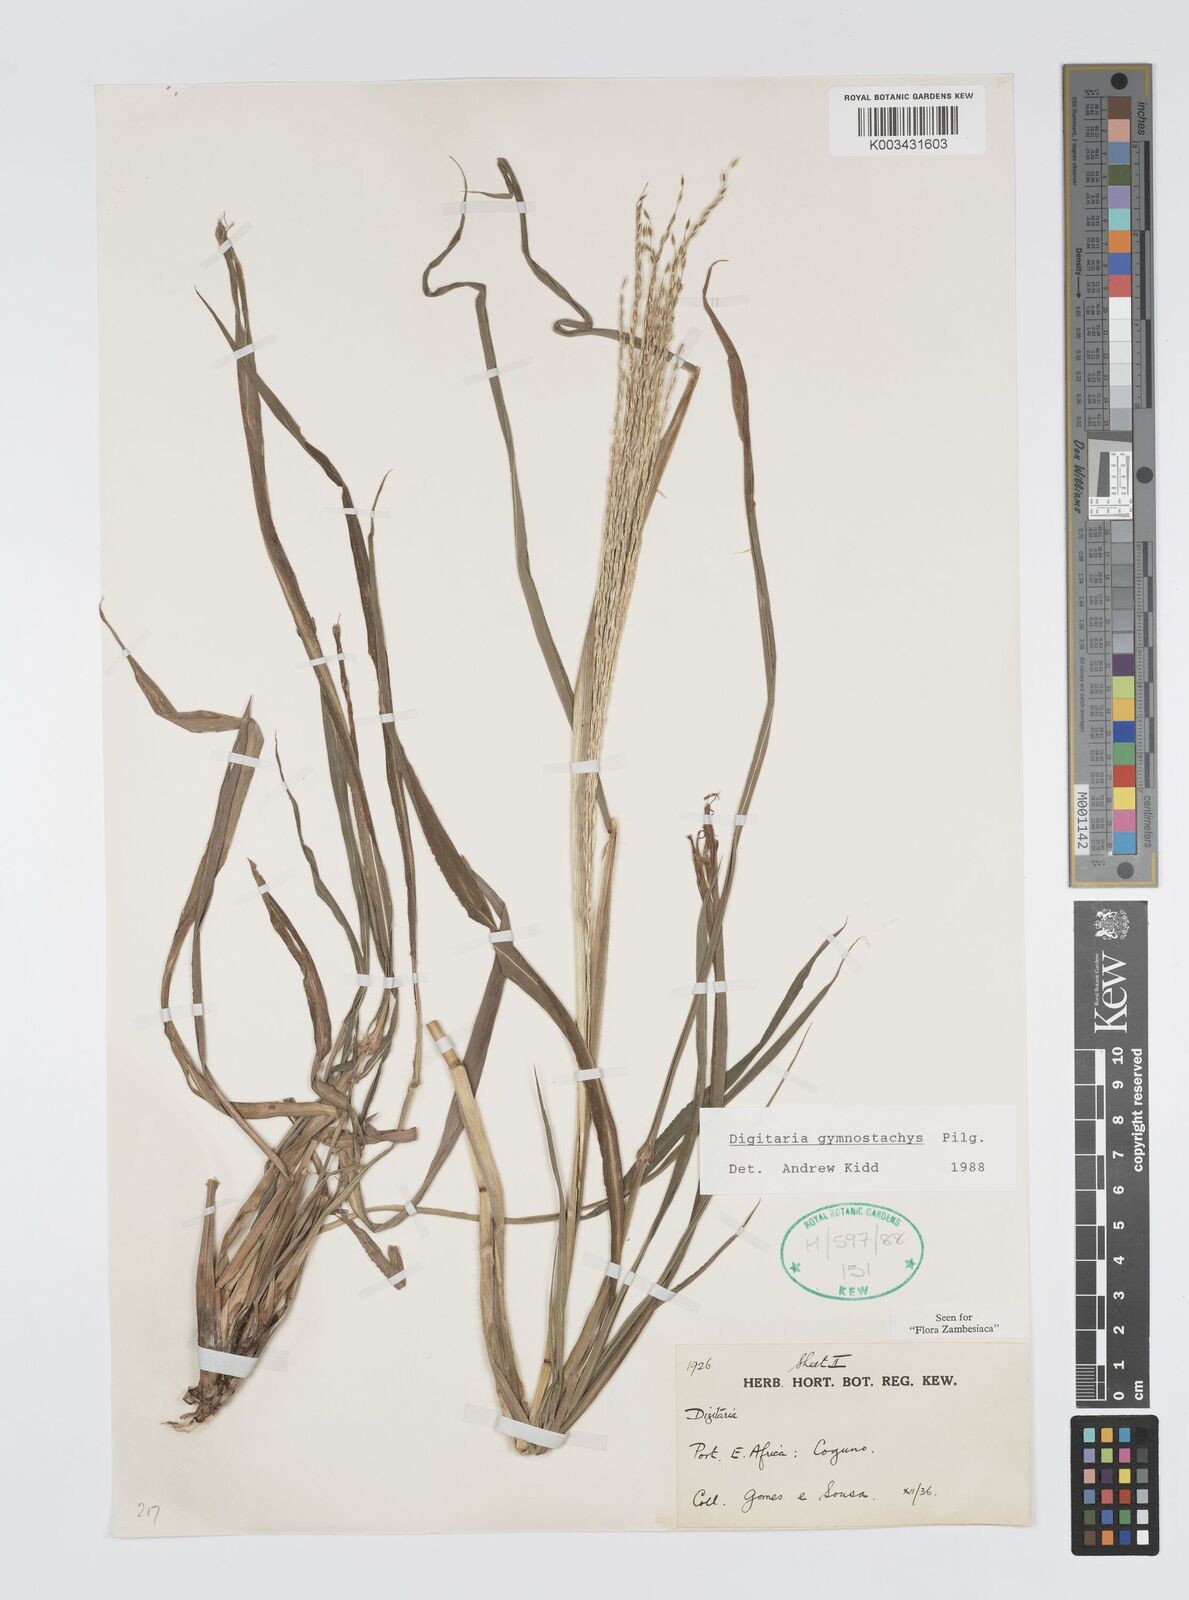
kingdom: Plantae
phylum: Tracheophyta
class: Liliopsida
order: Poales
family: Poaceae
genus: Digitaria
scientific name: Digitaria gymnostachys
